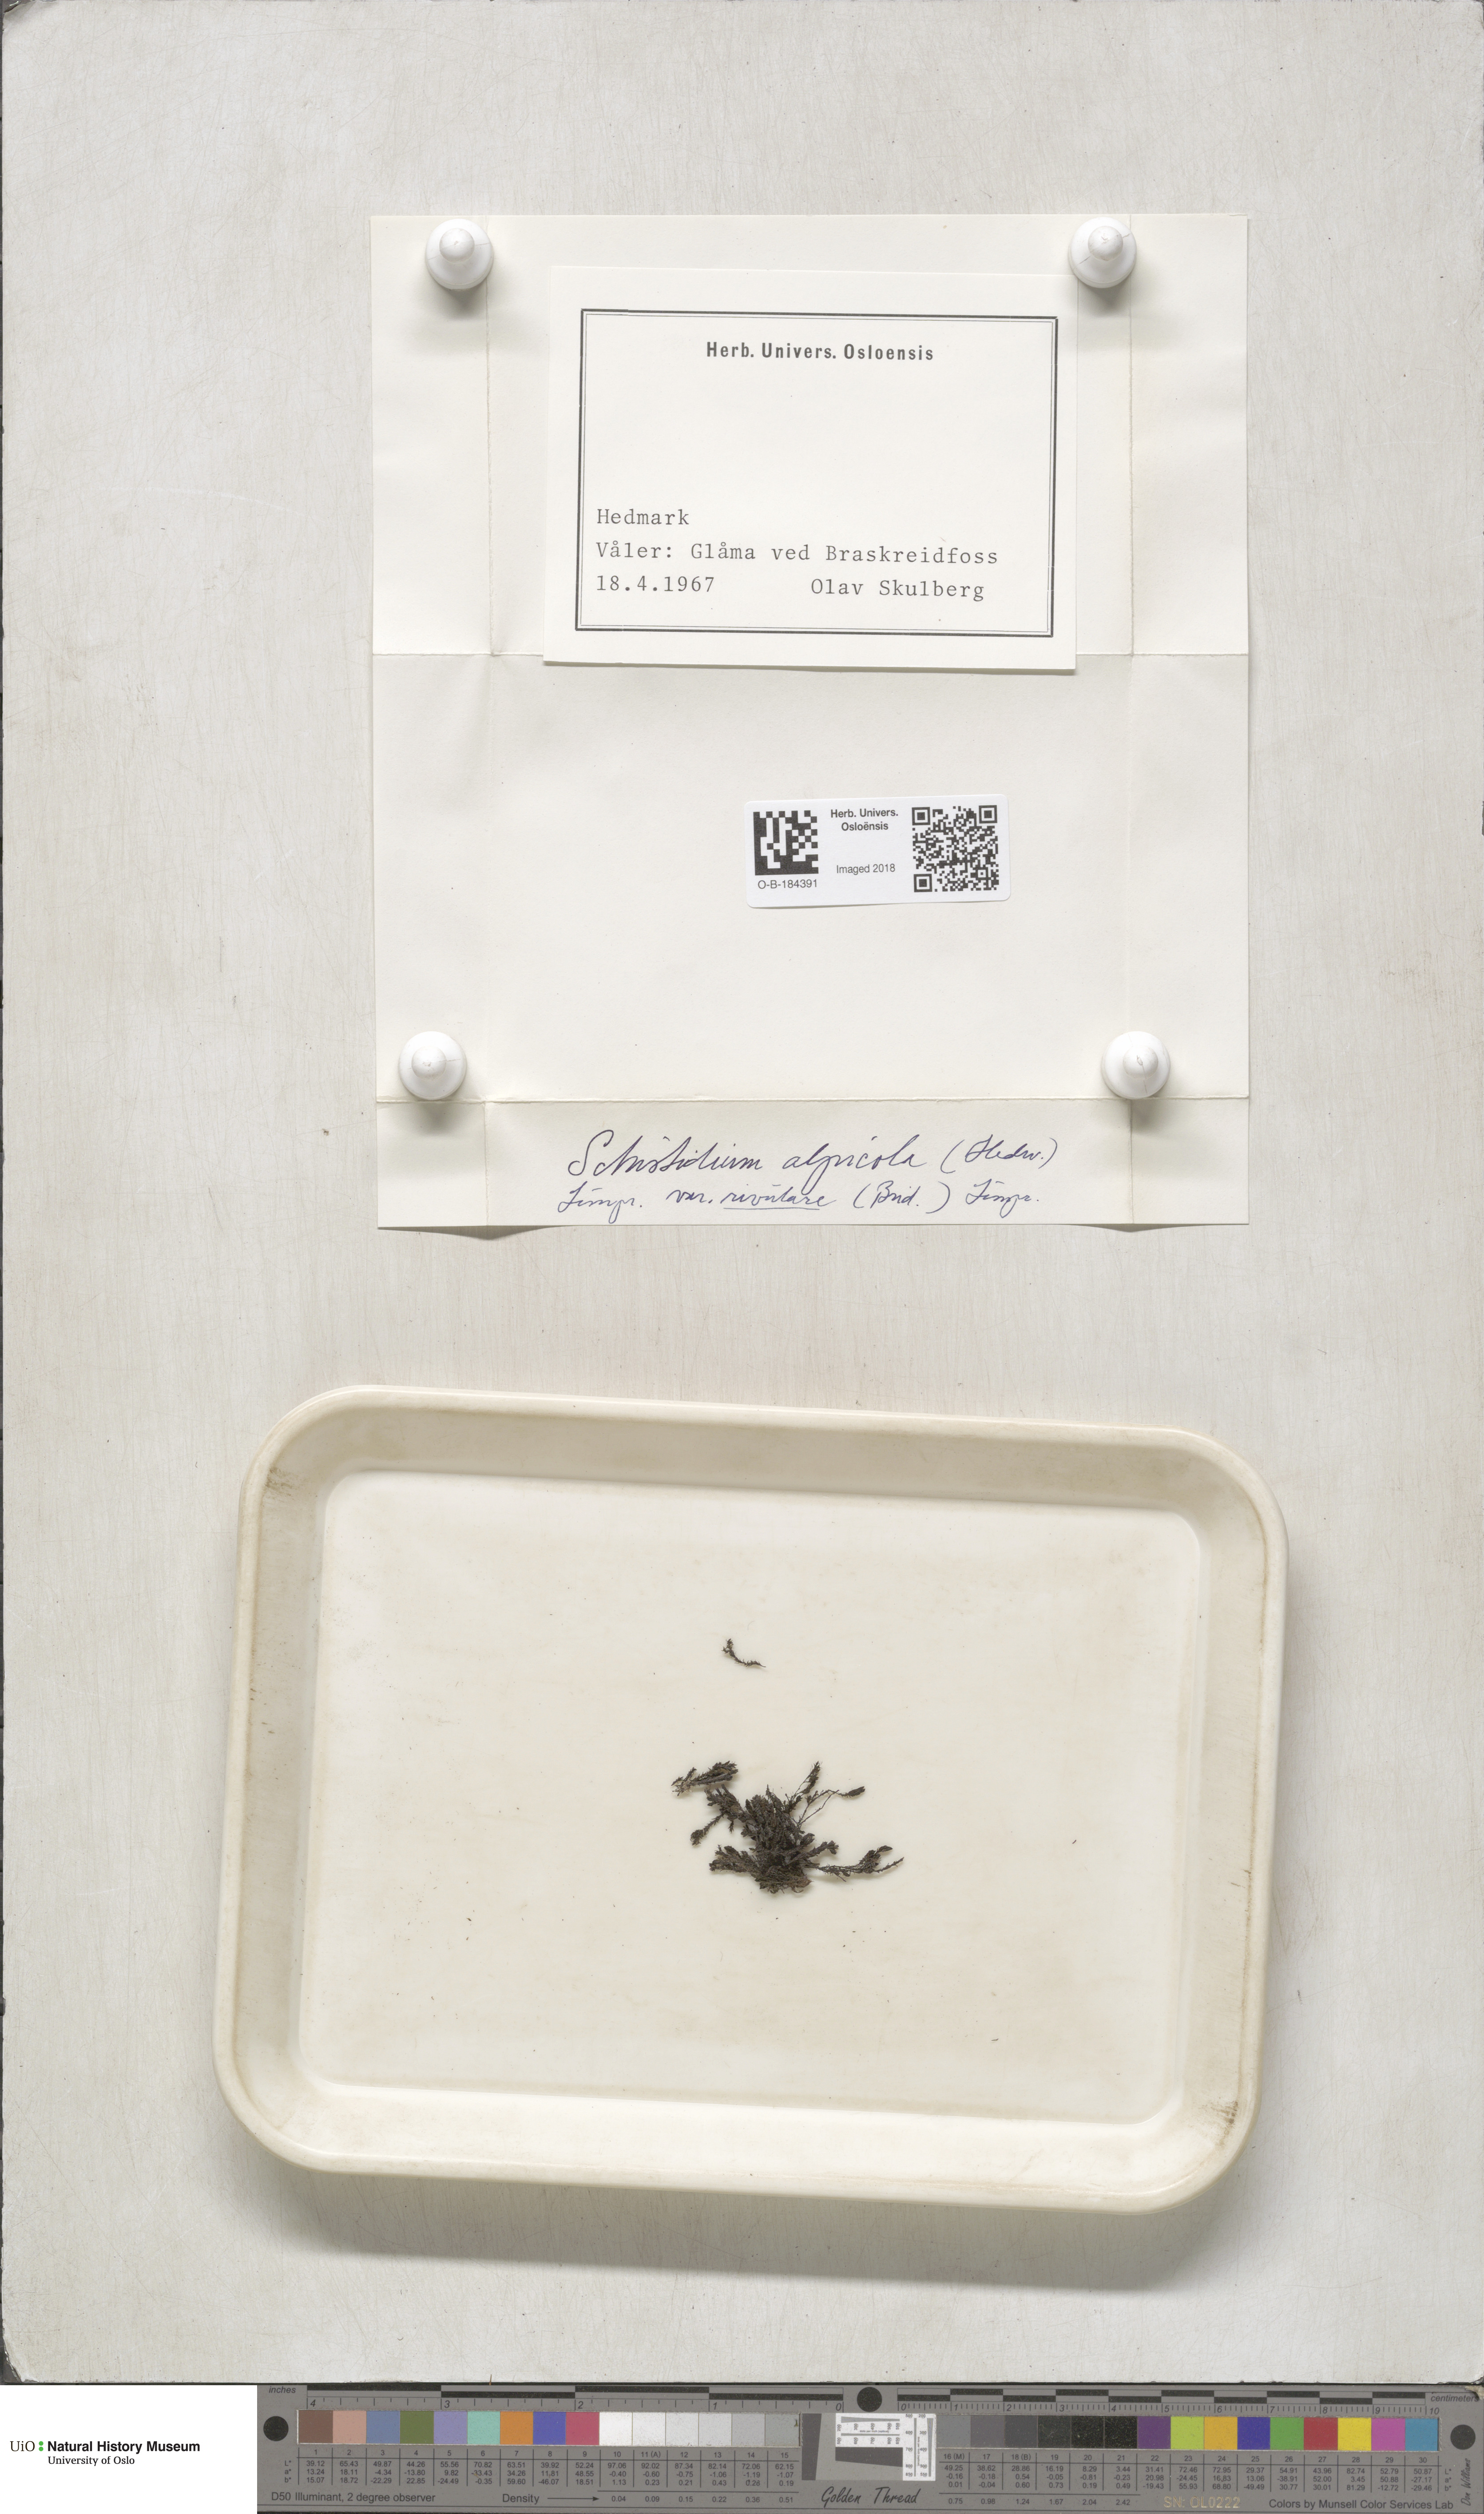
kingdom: Plantae
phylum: Bryophyta
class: Bryopsida
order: Grimmiales
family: Grimmiaceae
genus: Schistidium
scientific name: Schistidium rivulare
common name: River bloom moss
